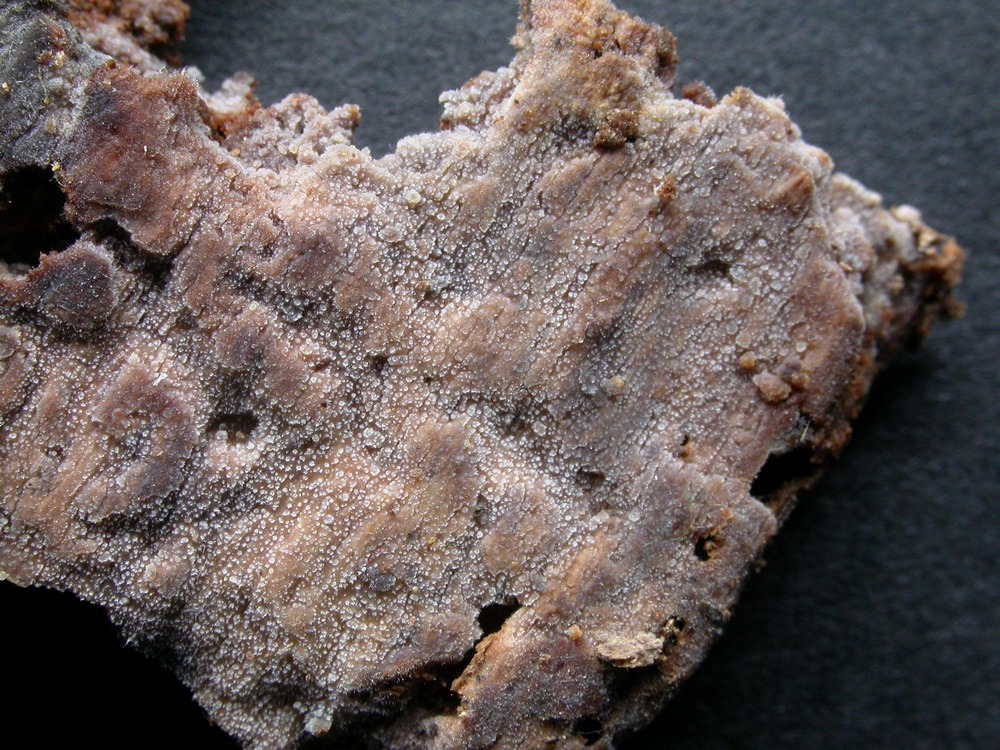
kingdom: Fungi
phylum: Basidiomycota
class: Agaricomycetes
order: Polyporales
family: Meruliaceae
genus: Scopuloides
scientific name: Scopuloides rimosa
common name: dughinde
